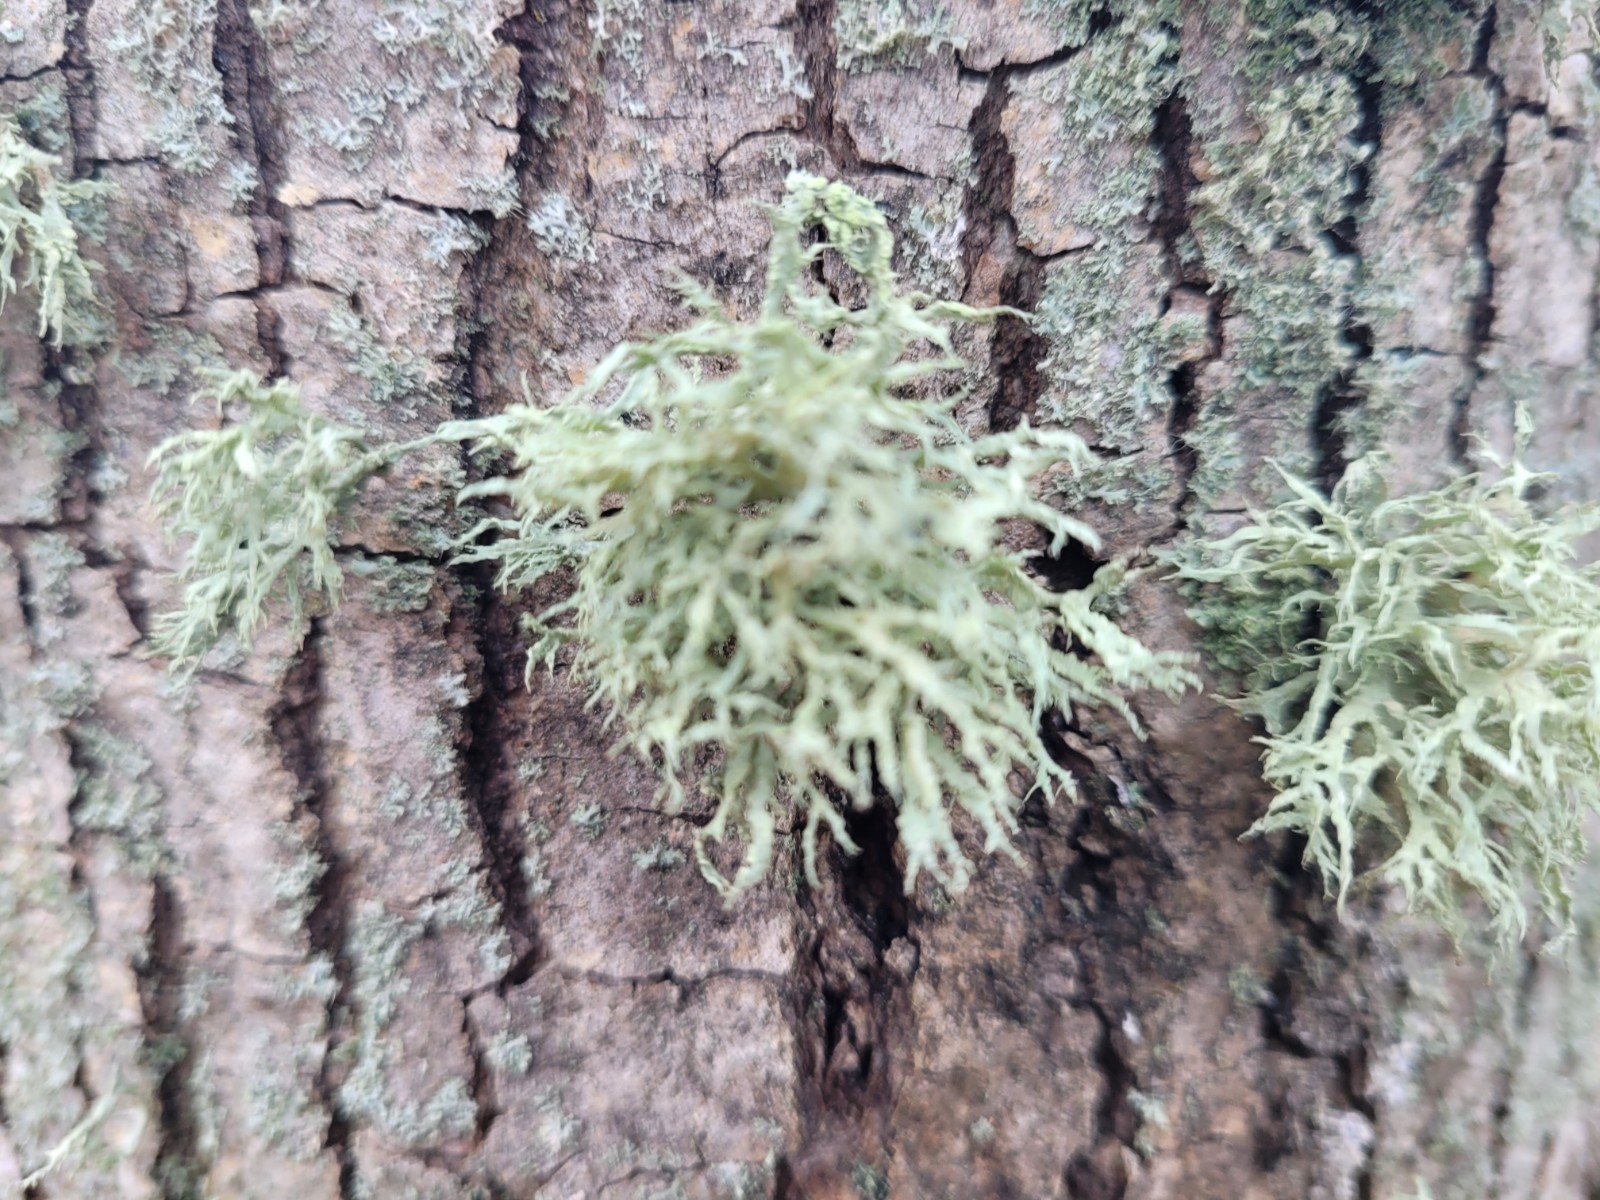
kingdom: Fungi
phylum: Ascomycota
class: Lecanoromycetes
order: Lecanorales
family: Ramalinaceae
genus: Ramalina
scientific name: Ramalina farinacea
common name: melet grenlav
